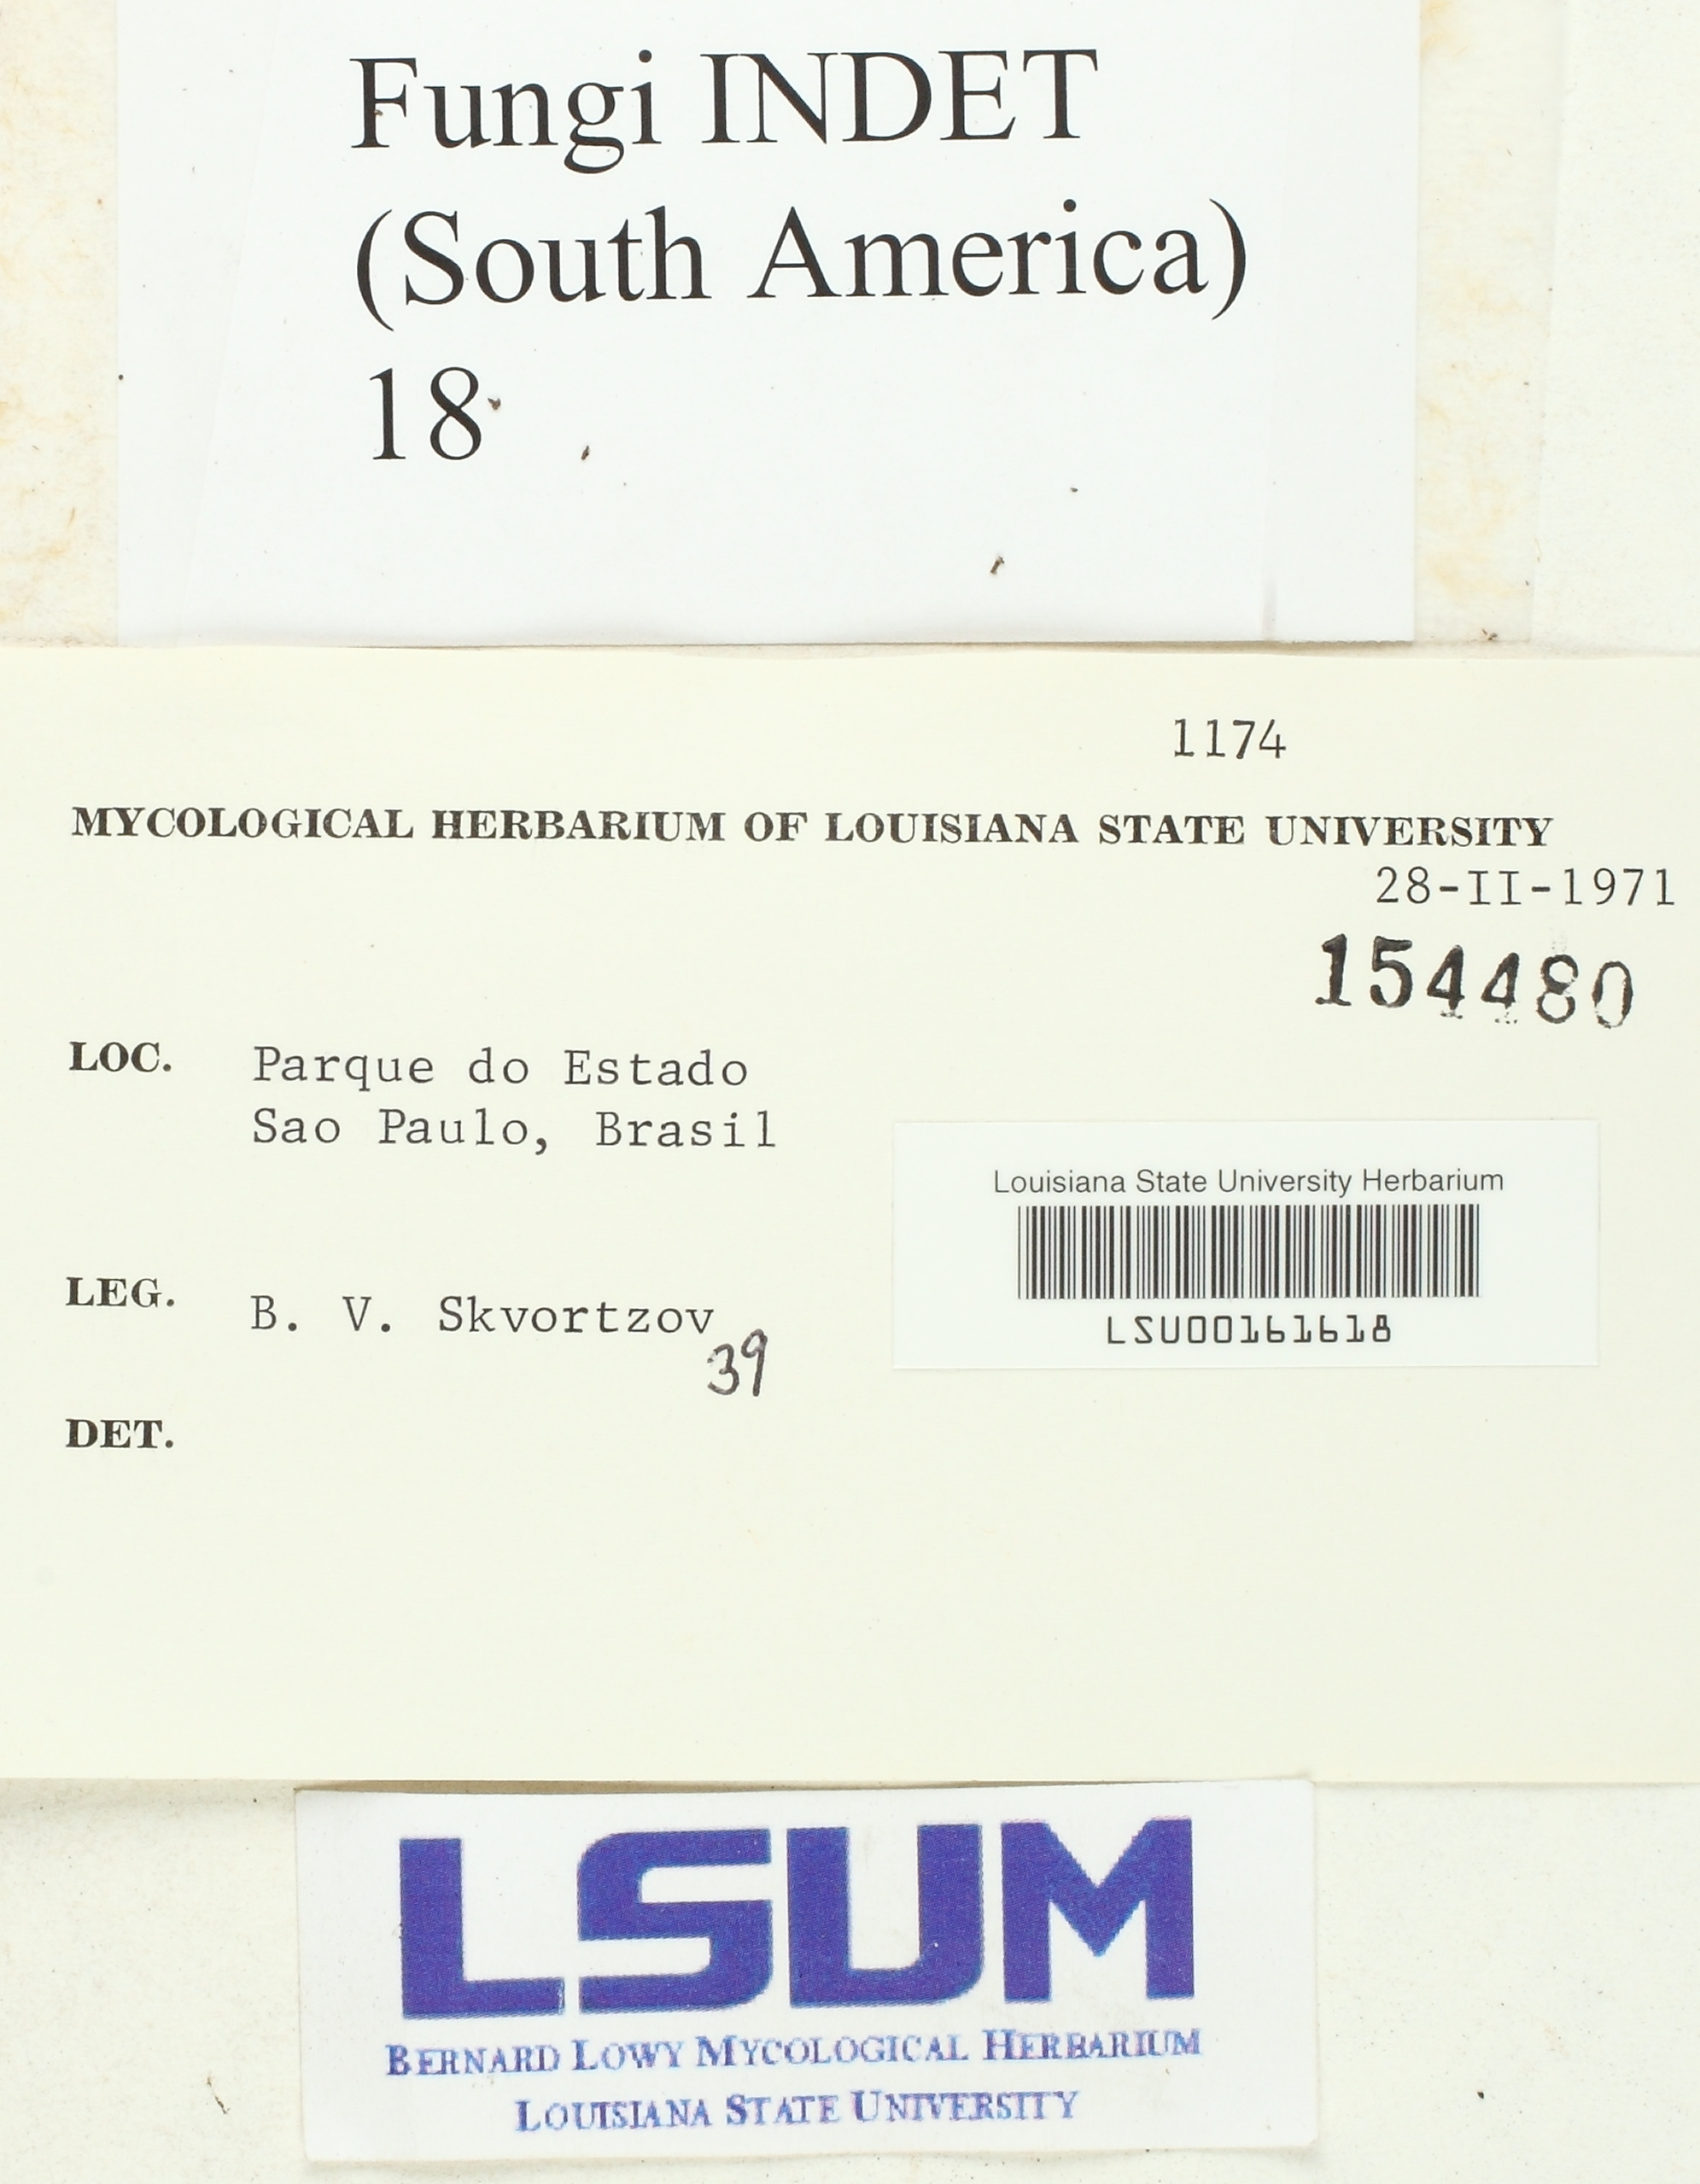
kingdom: Fungi
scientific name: Fungi
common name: Fungi
